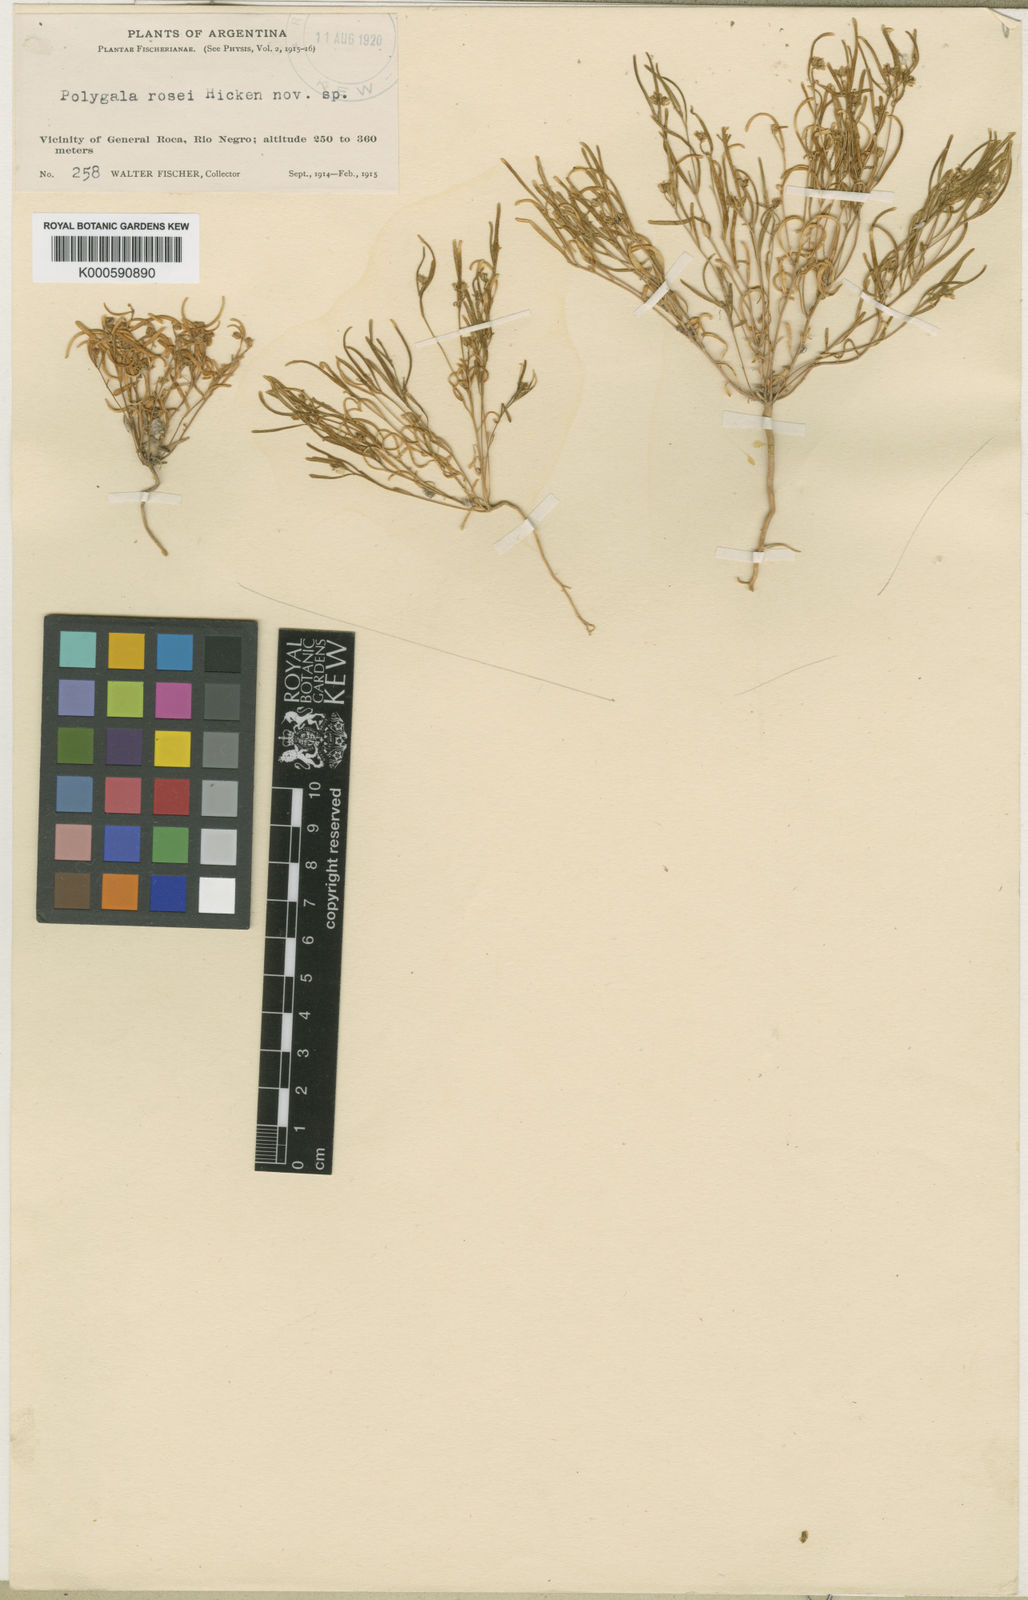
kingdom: Plantae
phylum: Tracheophyta
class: Magnoliopsida
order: Fabales
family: Polygalaceae
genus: Polygala
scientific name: Polygala rosei
